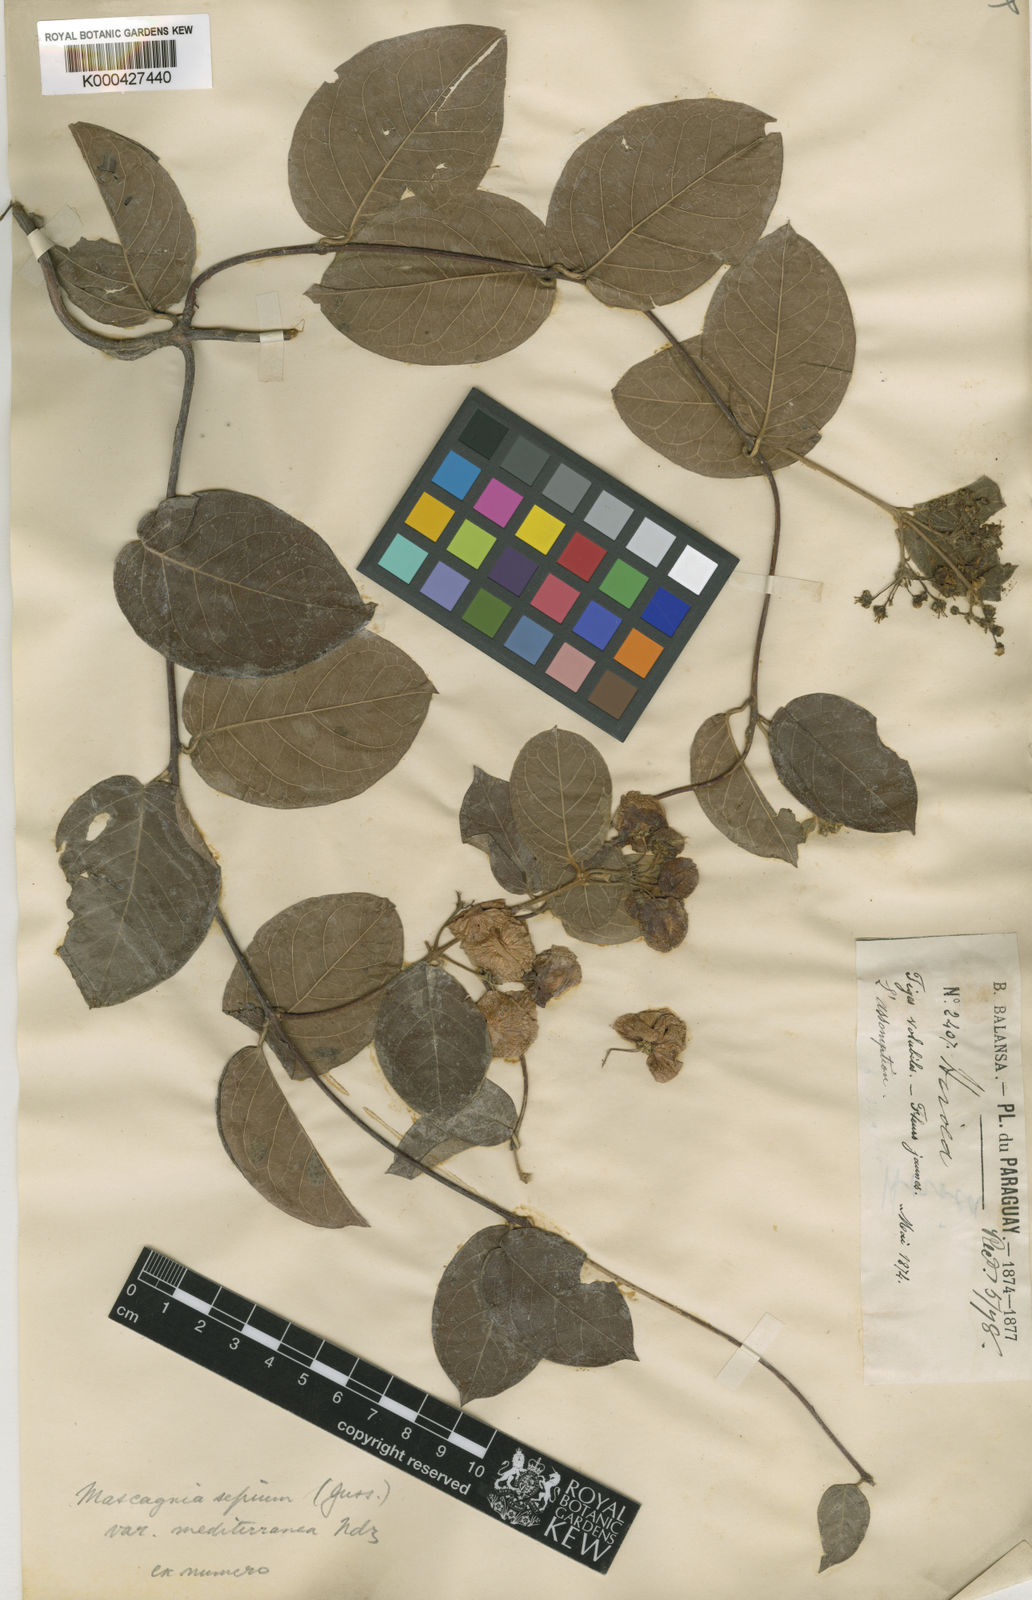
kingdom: Plantae
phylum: Tracheophyta
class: Magnoliopsida
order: Malpighiales
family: Malpighiaceae
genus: Mascagnia
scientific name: Mascagnia australis
